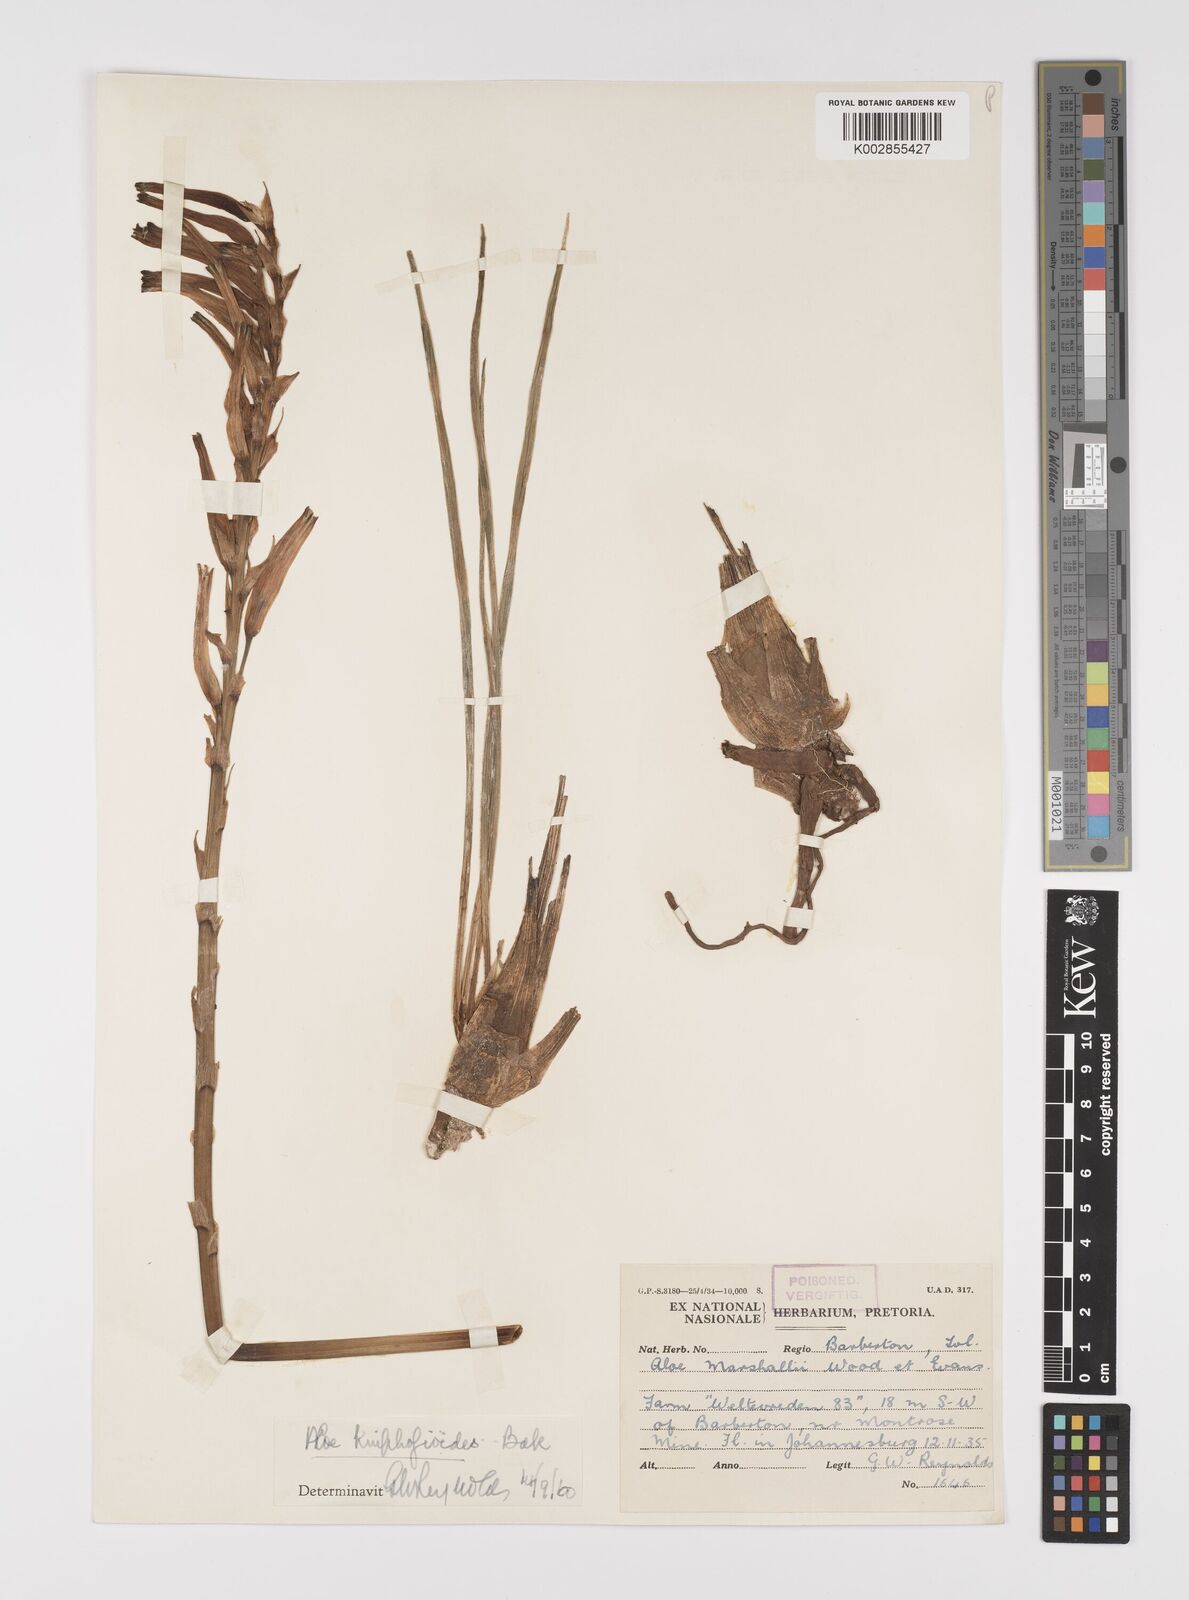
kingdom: Plantae
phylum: Tracheophyta
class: Liliopsida
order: Asparagales
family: Asphodelaceae
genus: Aloe
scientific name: Aloe kniphofioides
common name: Grass aloe
